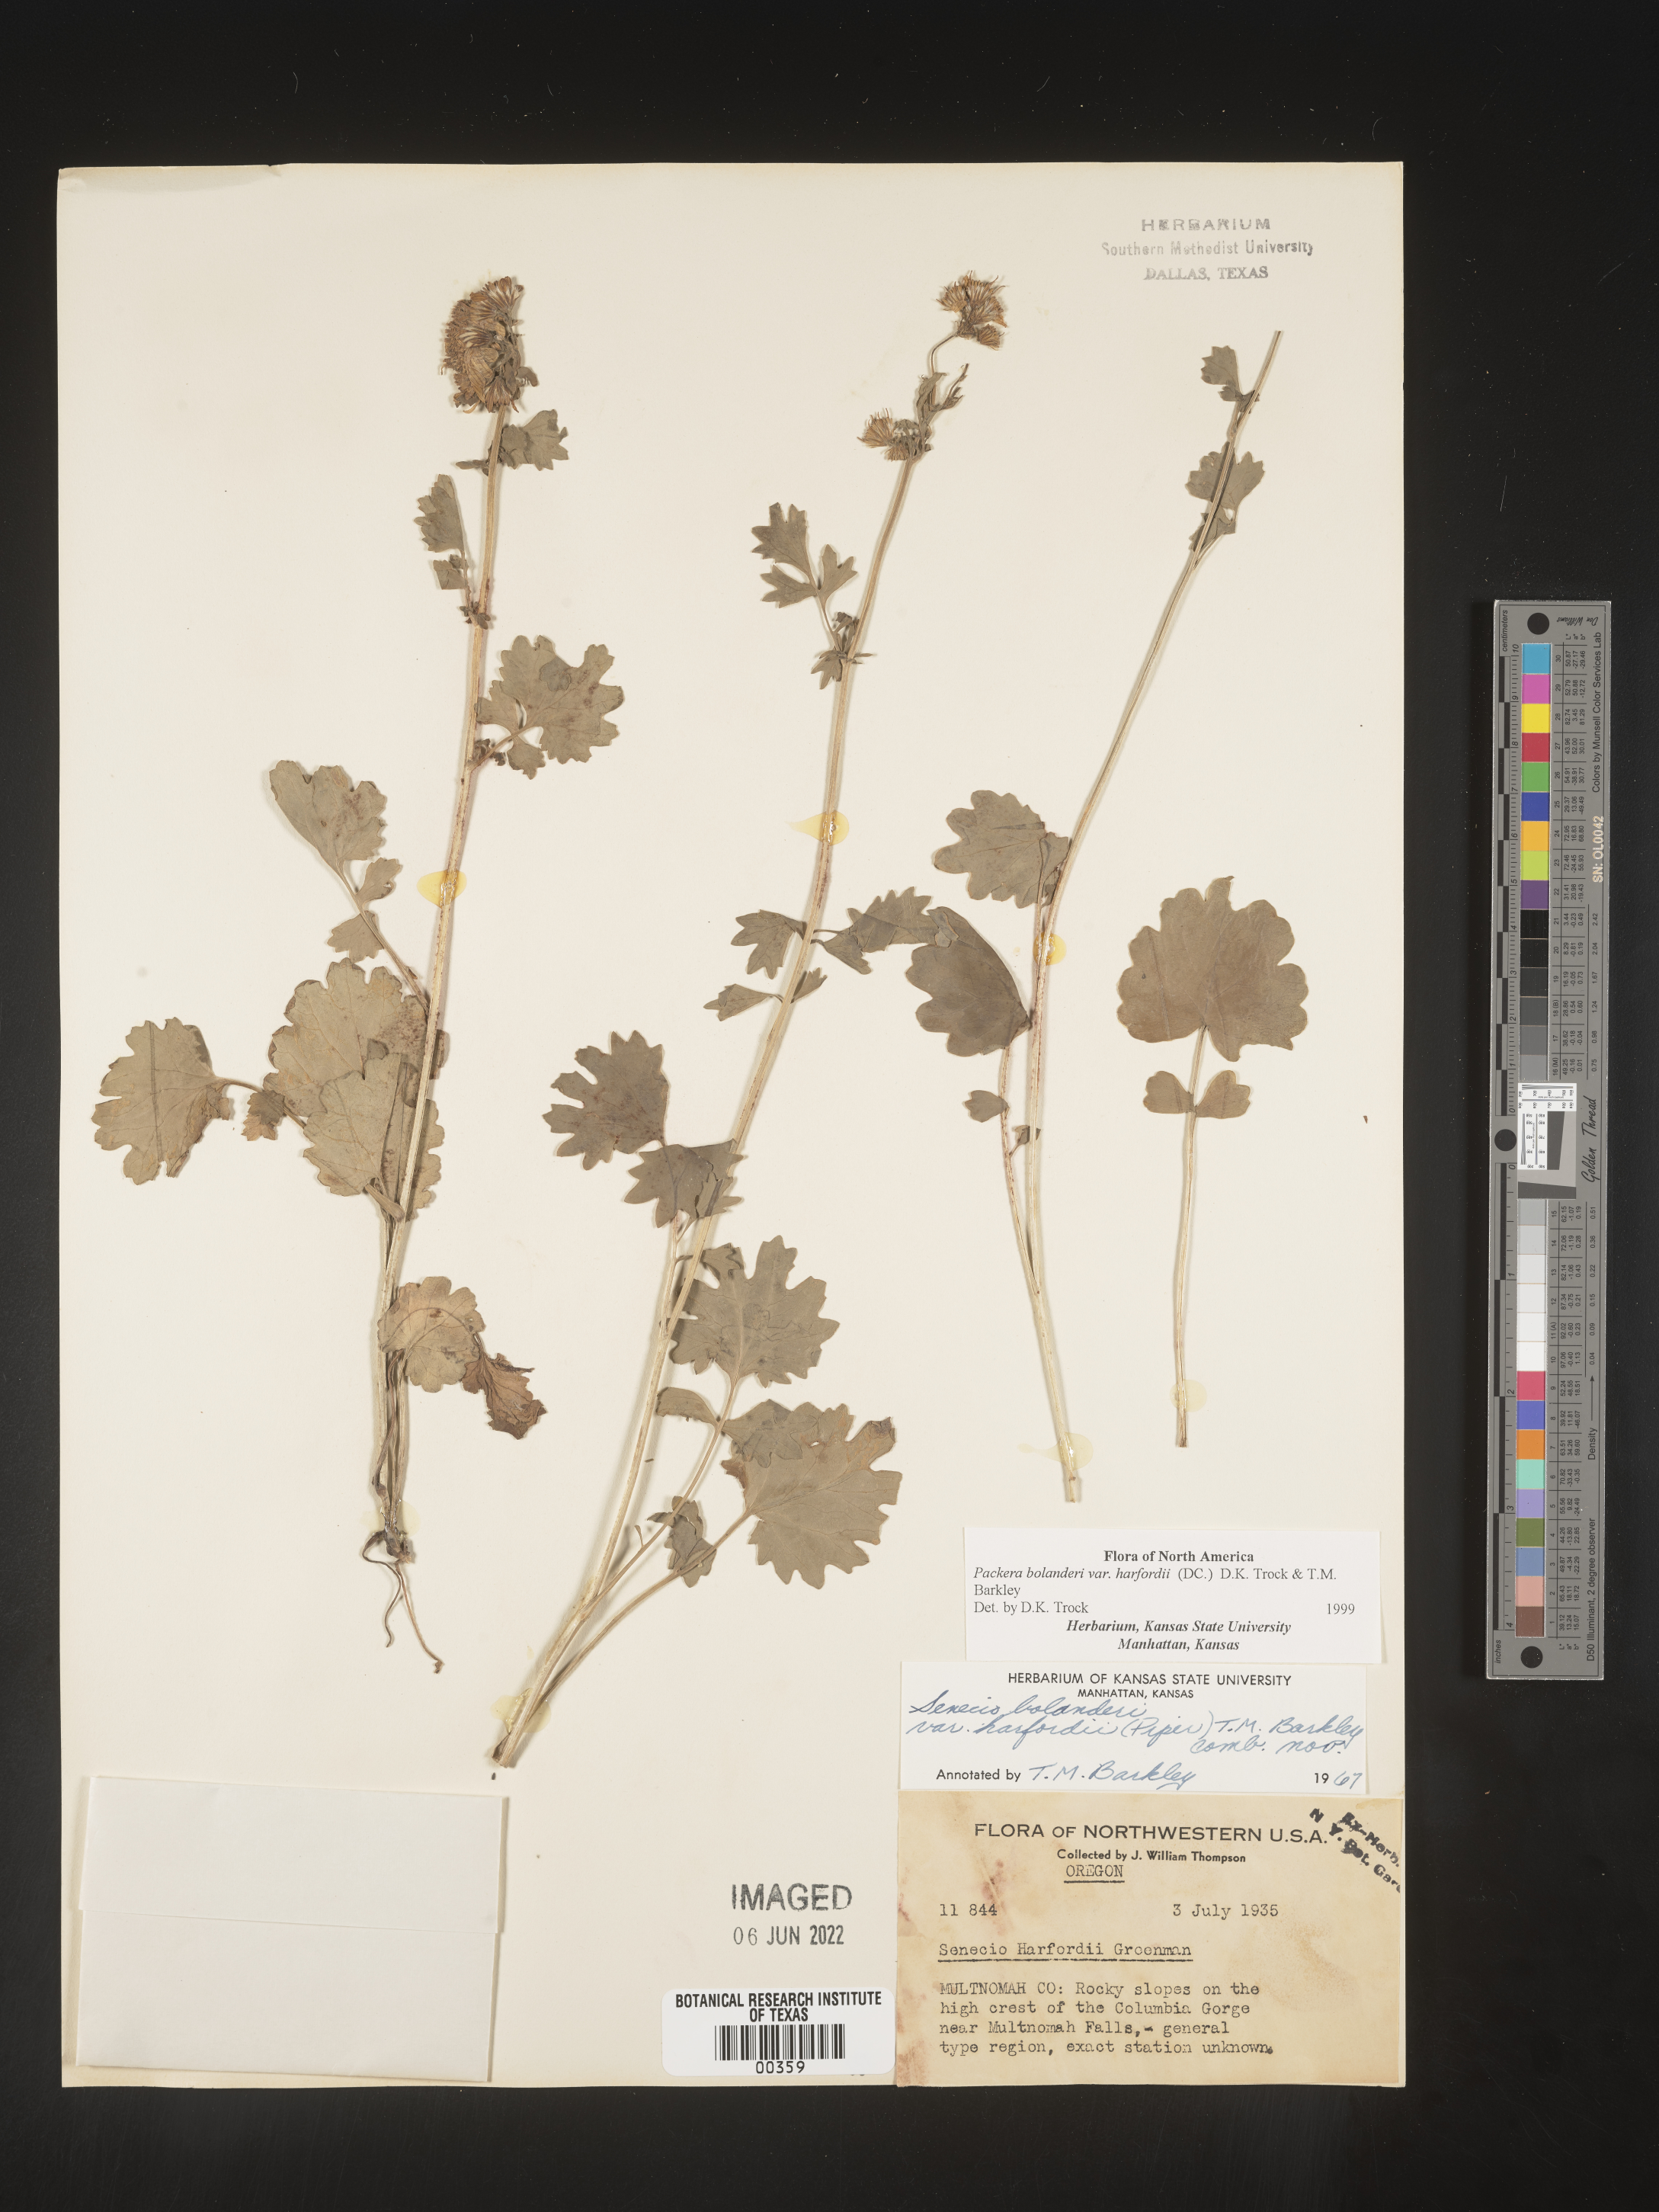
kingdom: Plantae
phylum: Tracheophyta
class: Magnoliopsida
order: Asterales
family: Asteraceae
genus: Packera
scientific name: Packera bolanderi
